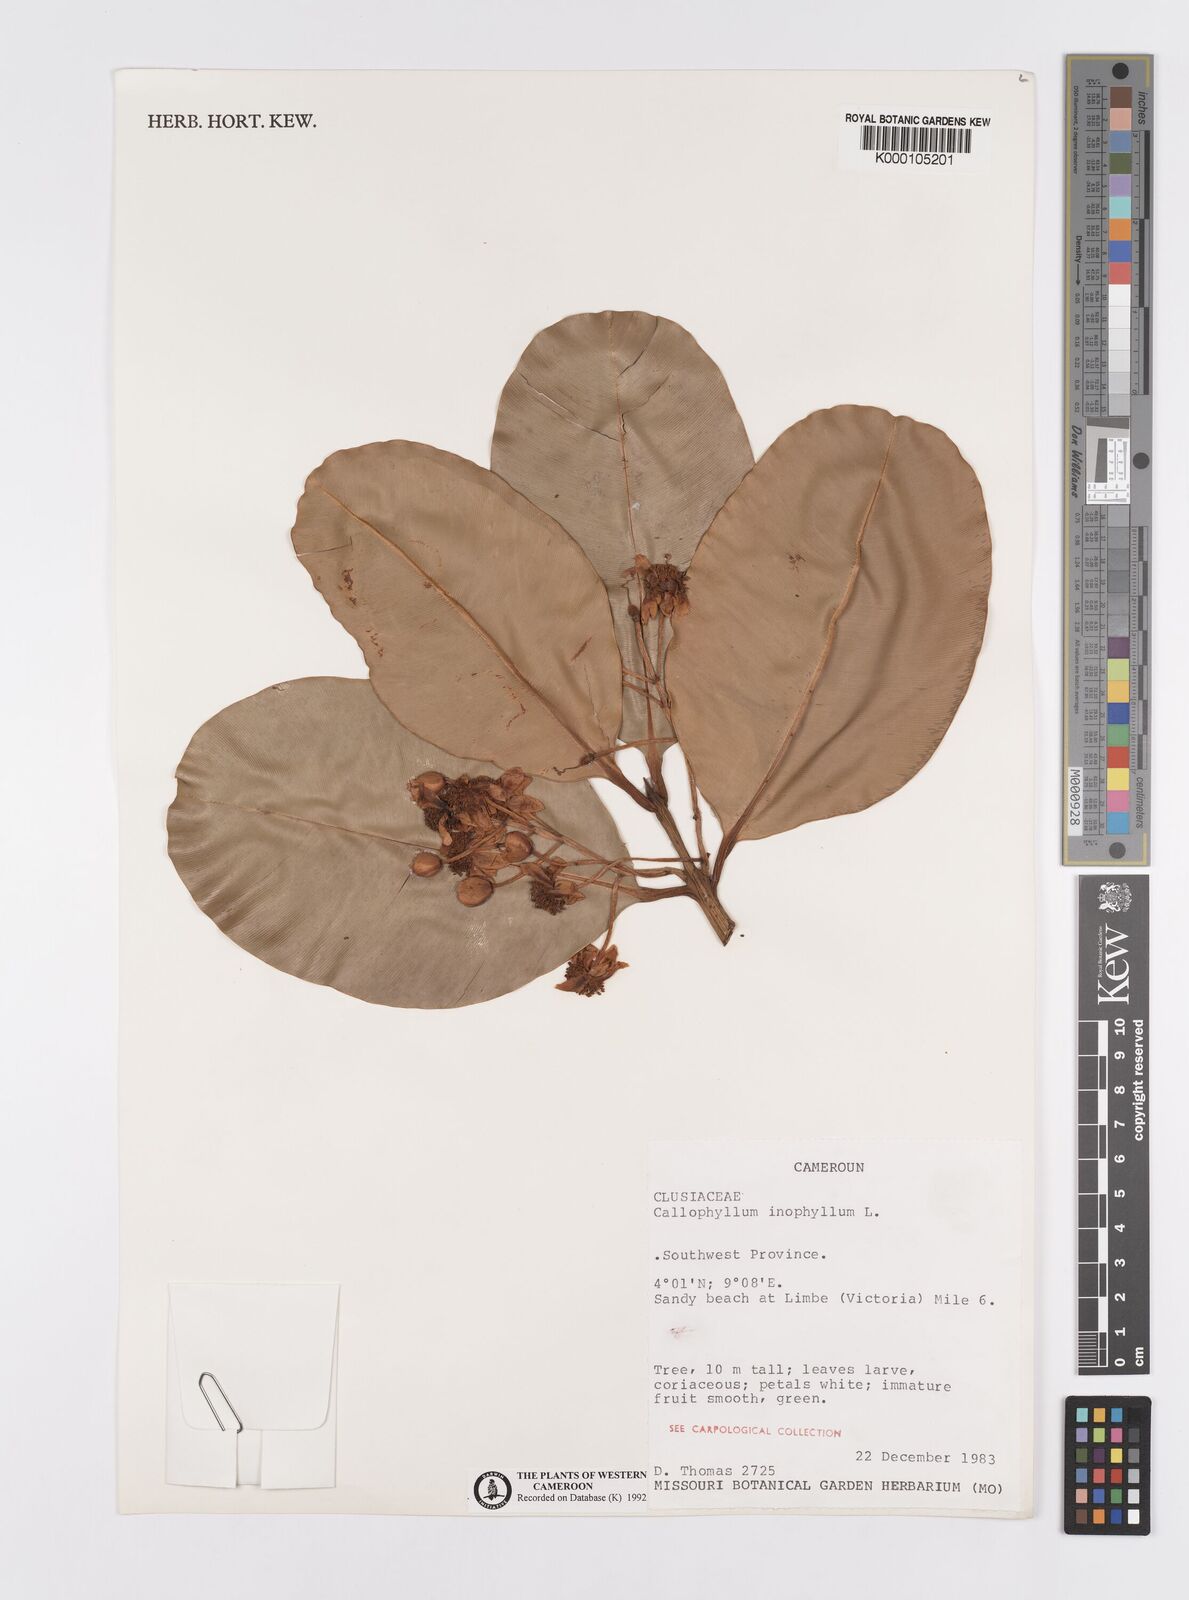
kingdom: Plantae
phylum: Tracheophyta
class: Magnoliopsida
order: Malpighiales
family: Calophyllaceae
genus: Calophyllum
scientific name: Calophyllum inophyllum
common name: Alexandrian laurel
